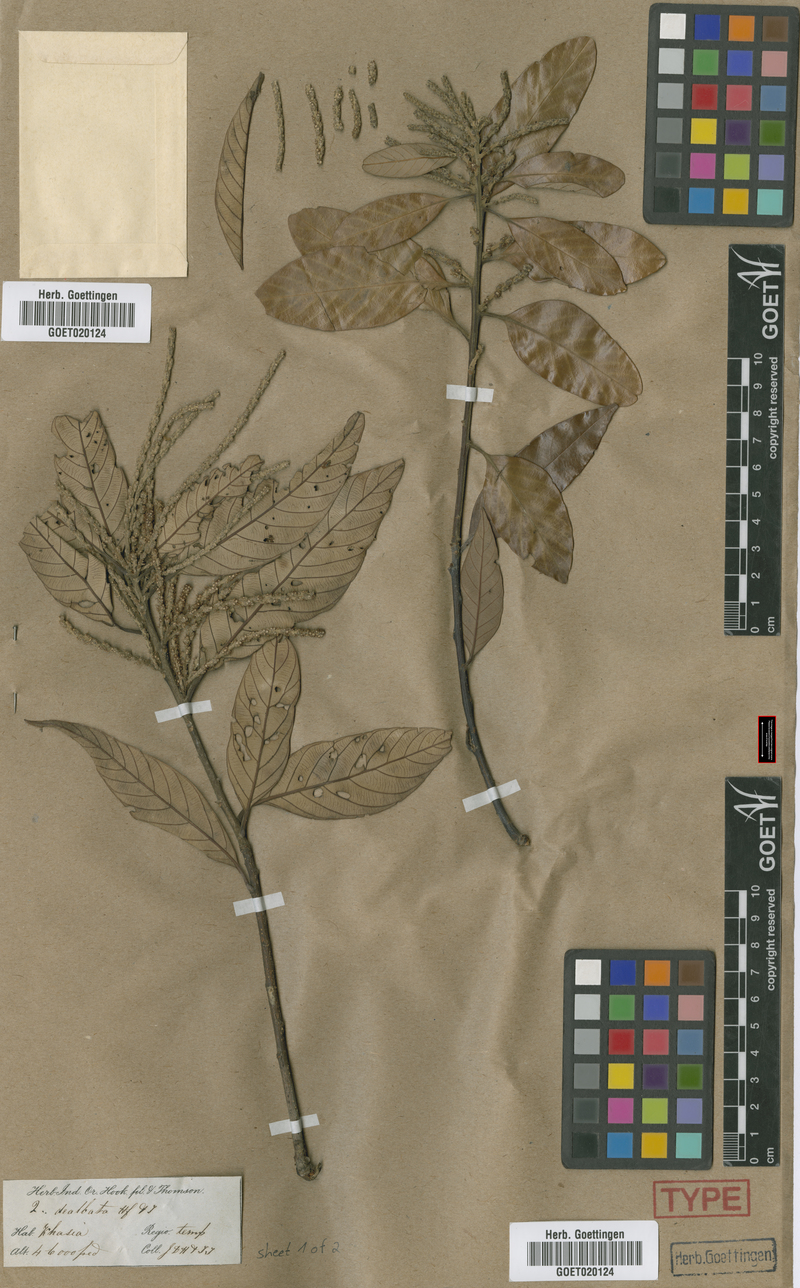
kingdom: Plantae
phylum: Tracheophyta
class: Magnoliopsida
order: Fagales
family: Fagaceae
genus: Lithocarpus
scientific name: Lithocarpus dealbatus
